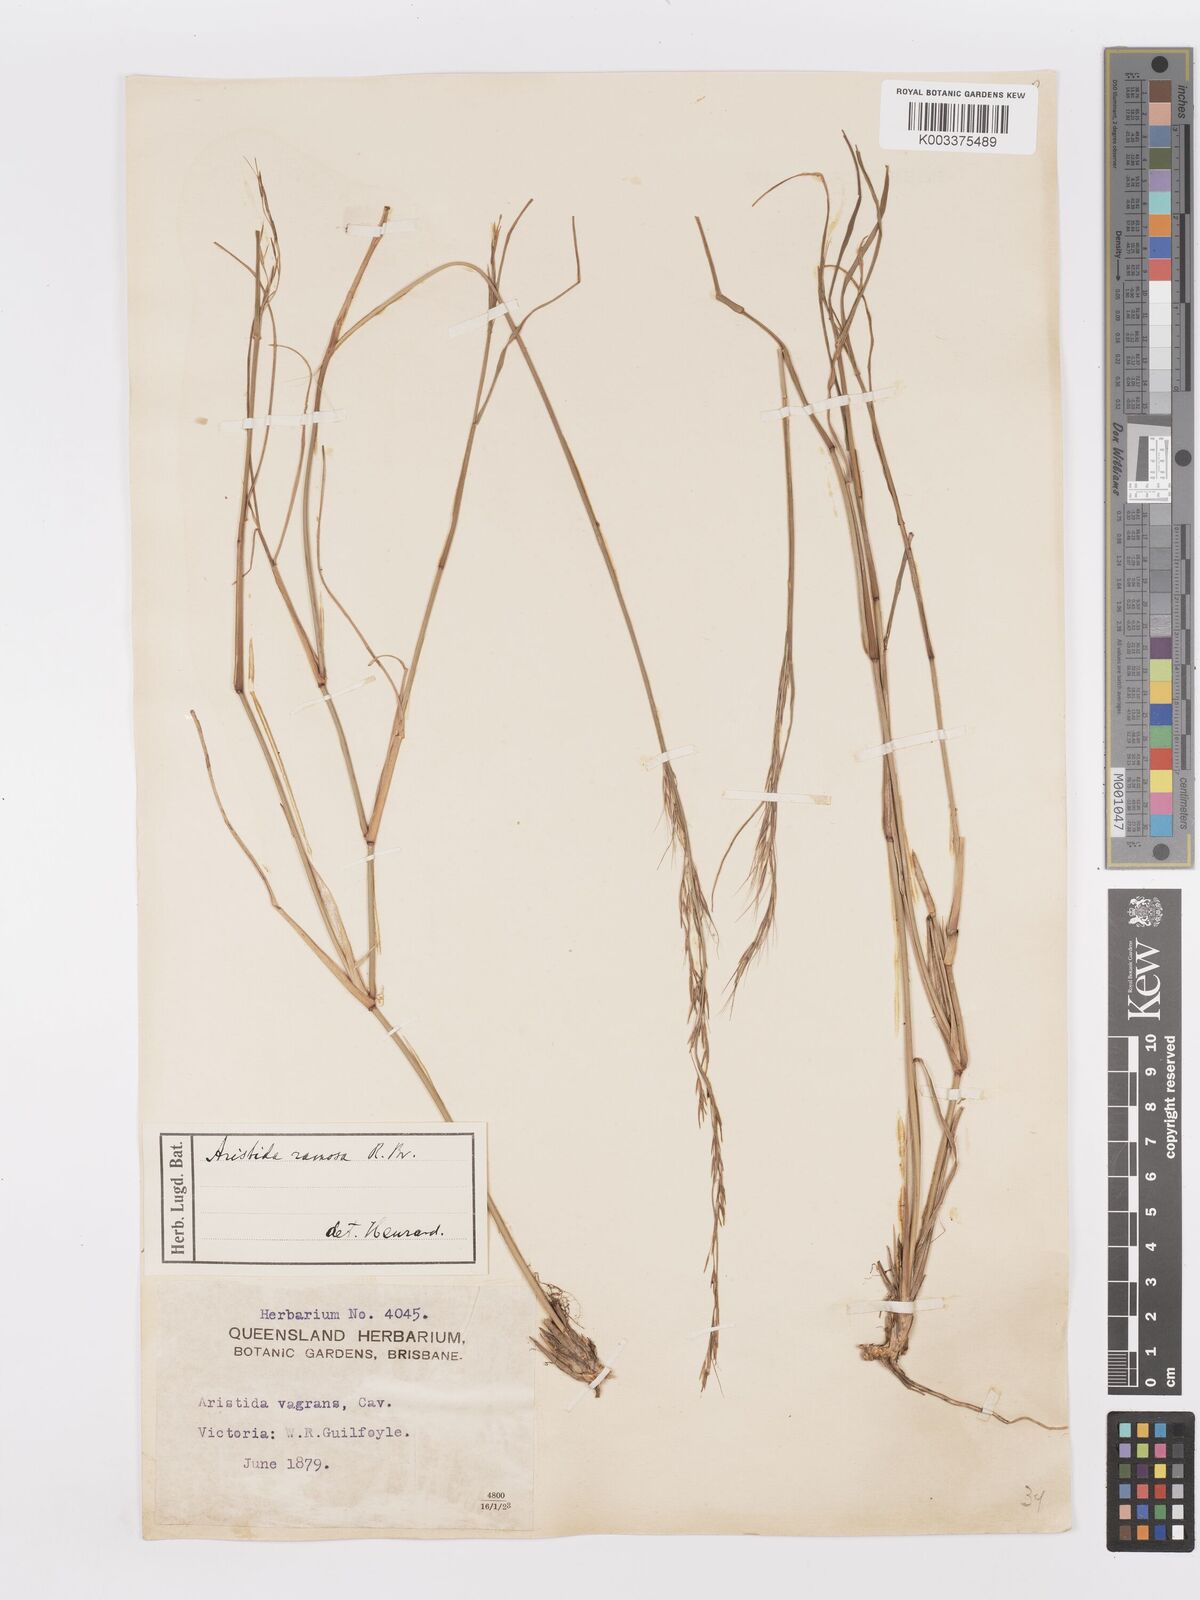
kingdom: Plantae
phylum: Tracheophyta
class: Liliopsida
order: Poales
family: Poaceae
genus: Aristida
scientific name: Aristida ramosa
